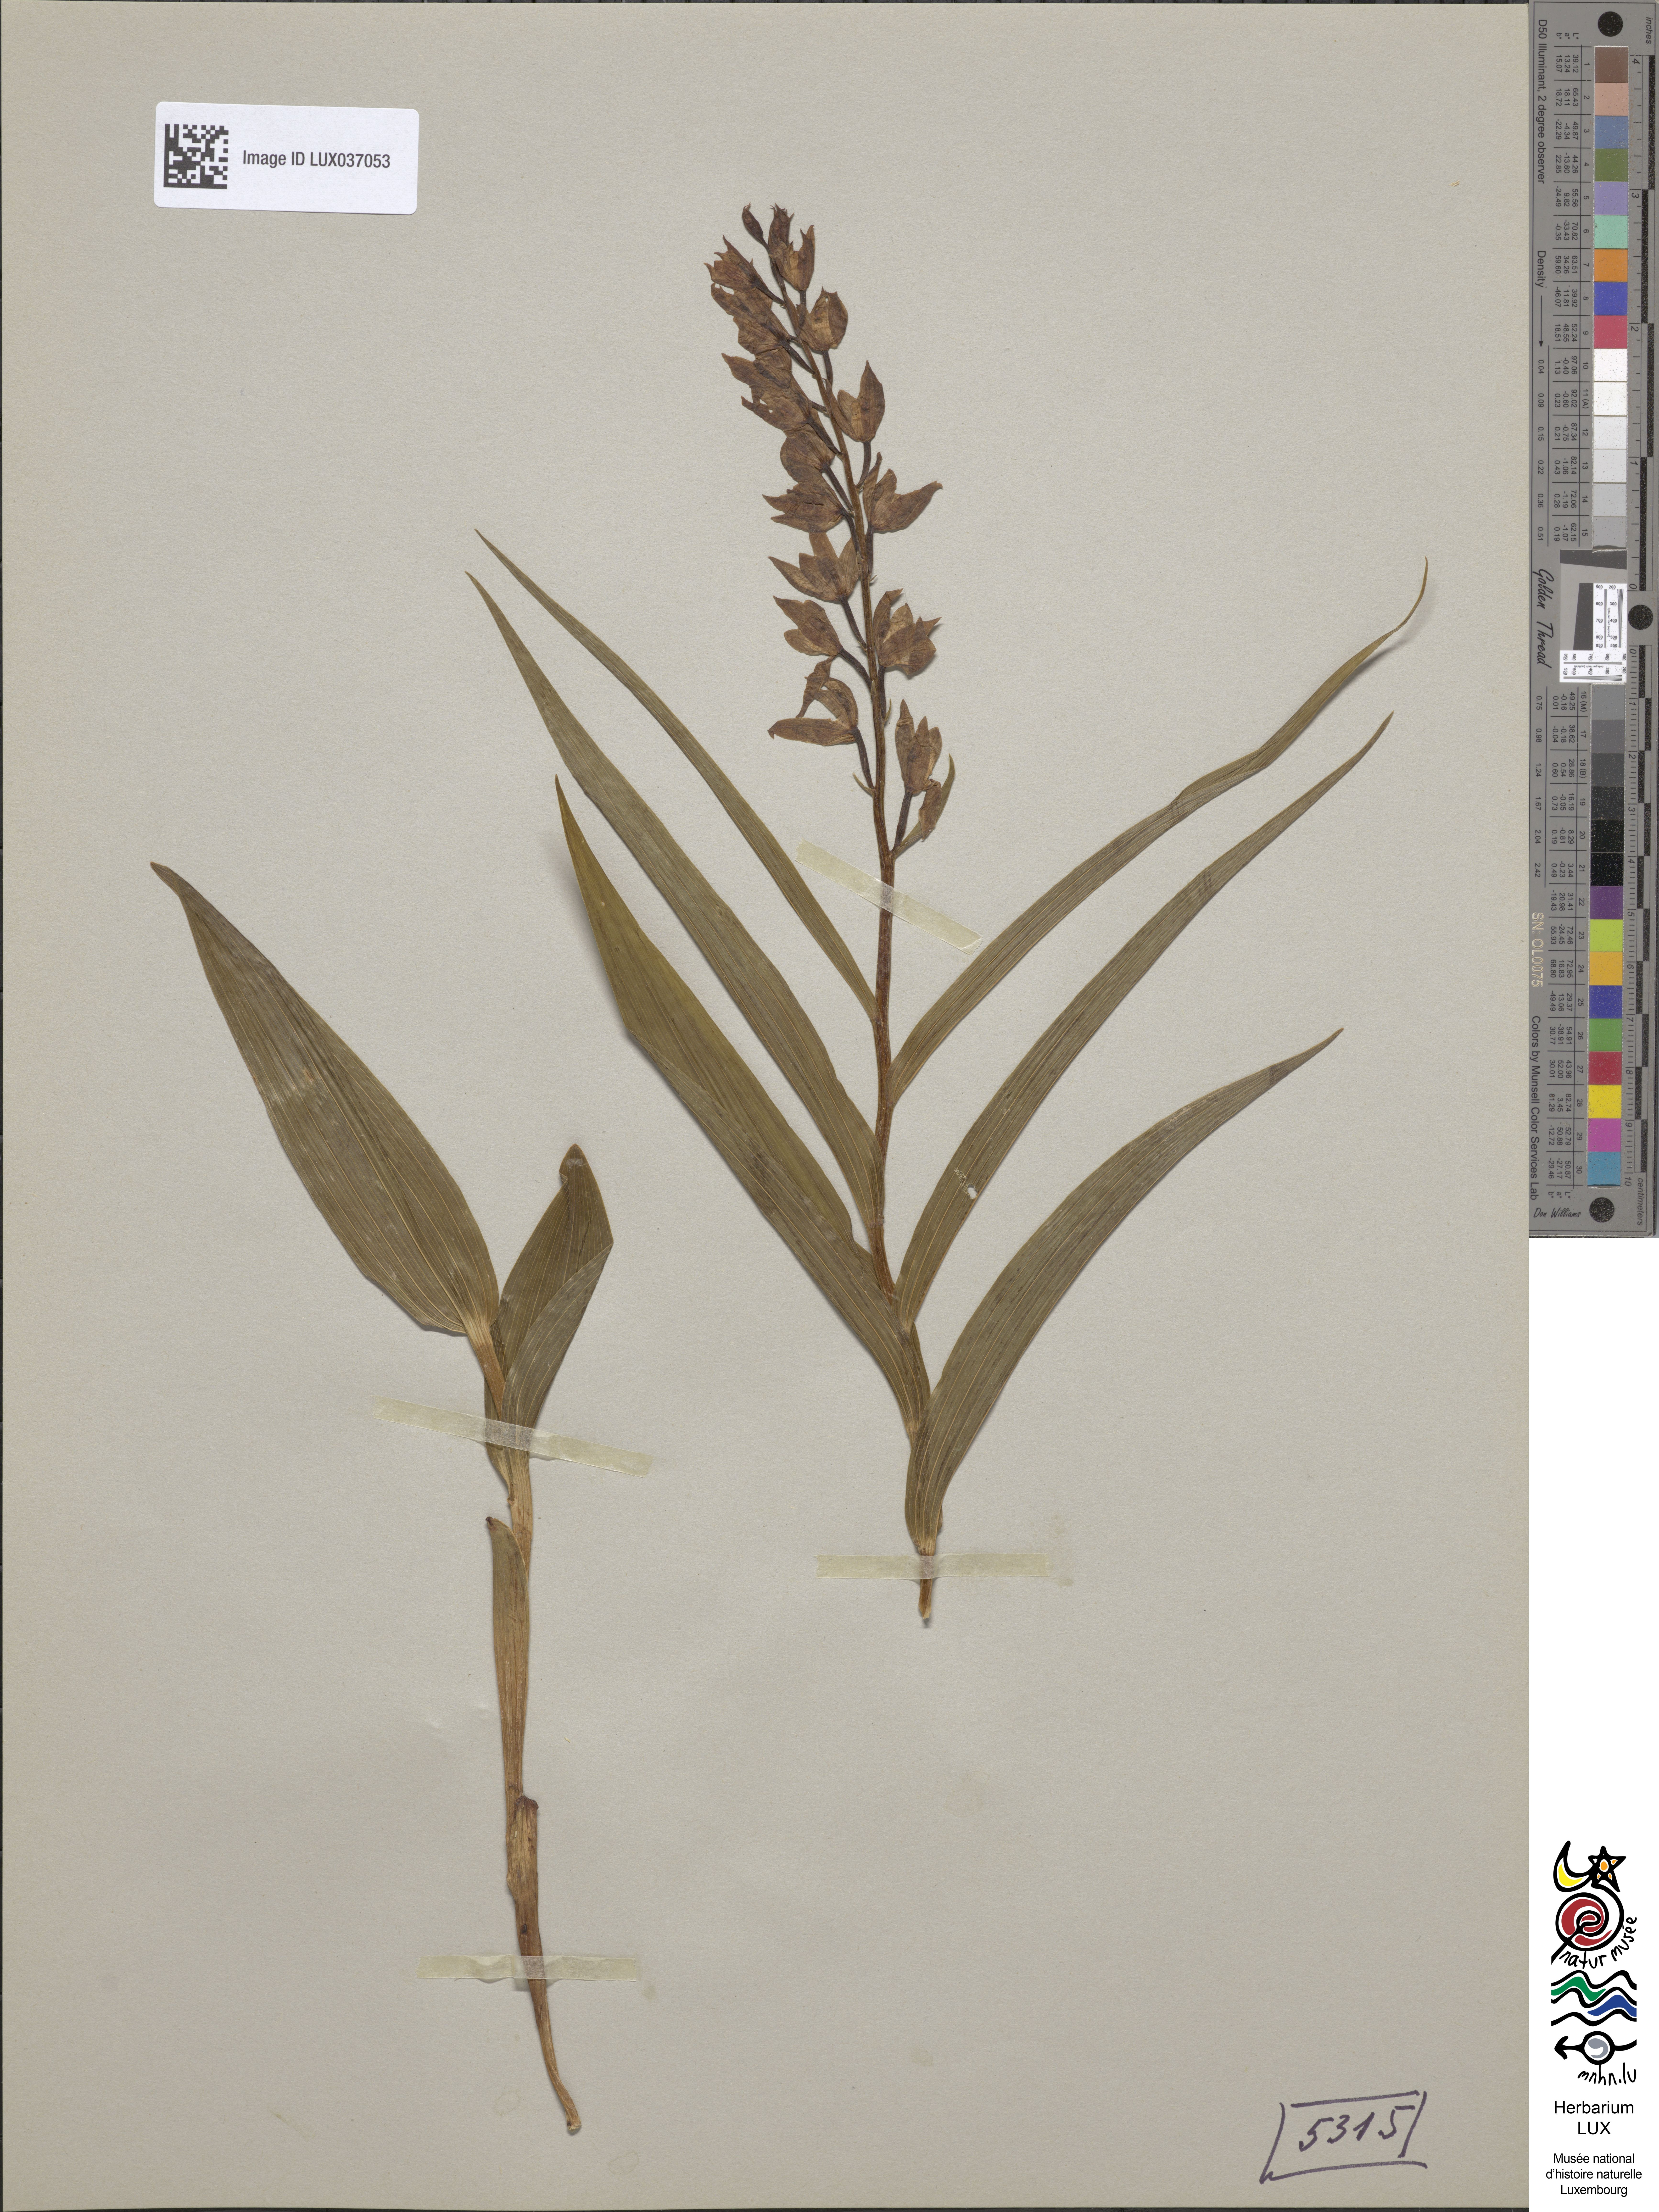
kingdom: Plantae
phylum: Tracheophyta
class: Liliopsida
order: Asparagales
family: Orchidaceae
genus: Cephalanthera
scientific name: Cephalanthera longifolia
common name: Narrow-leaved helleborine
